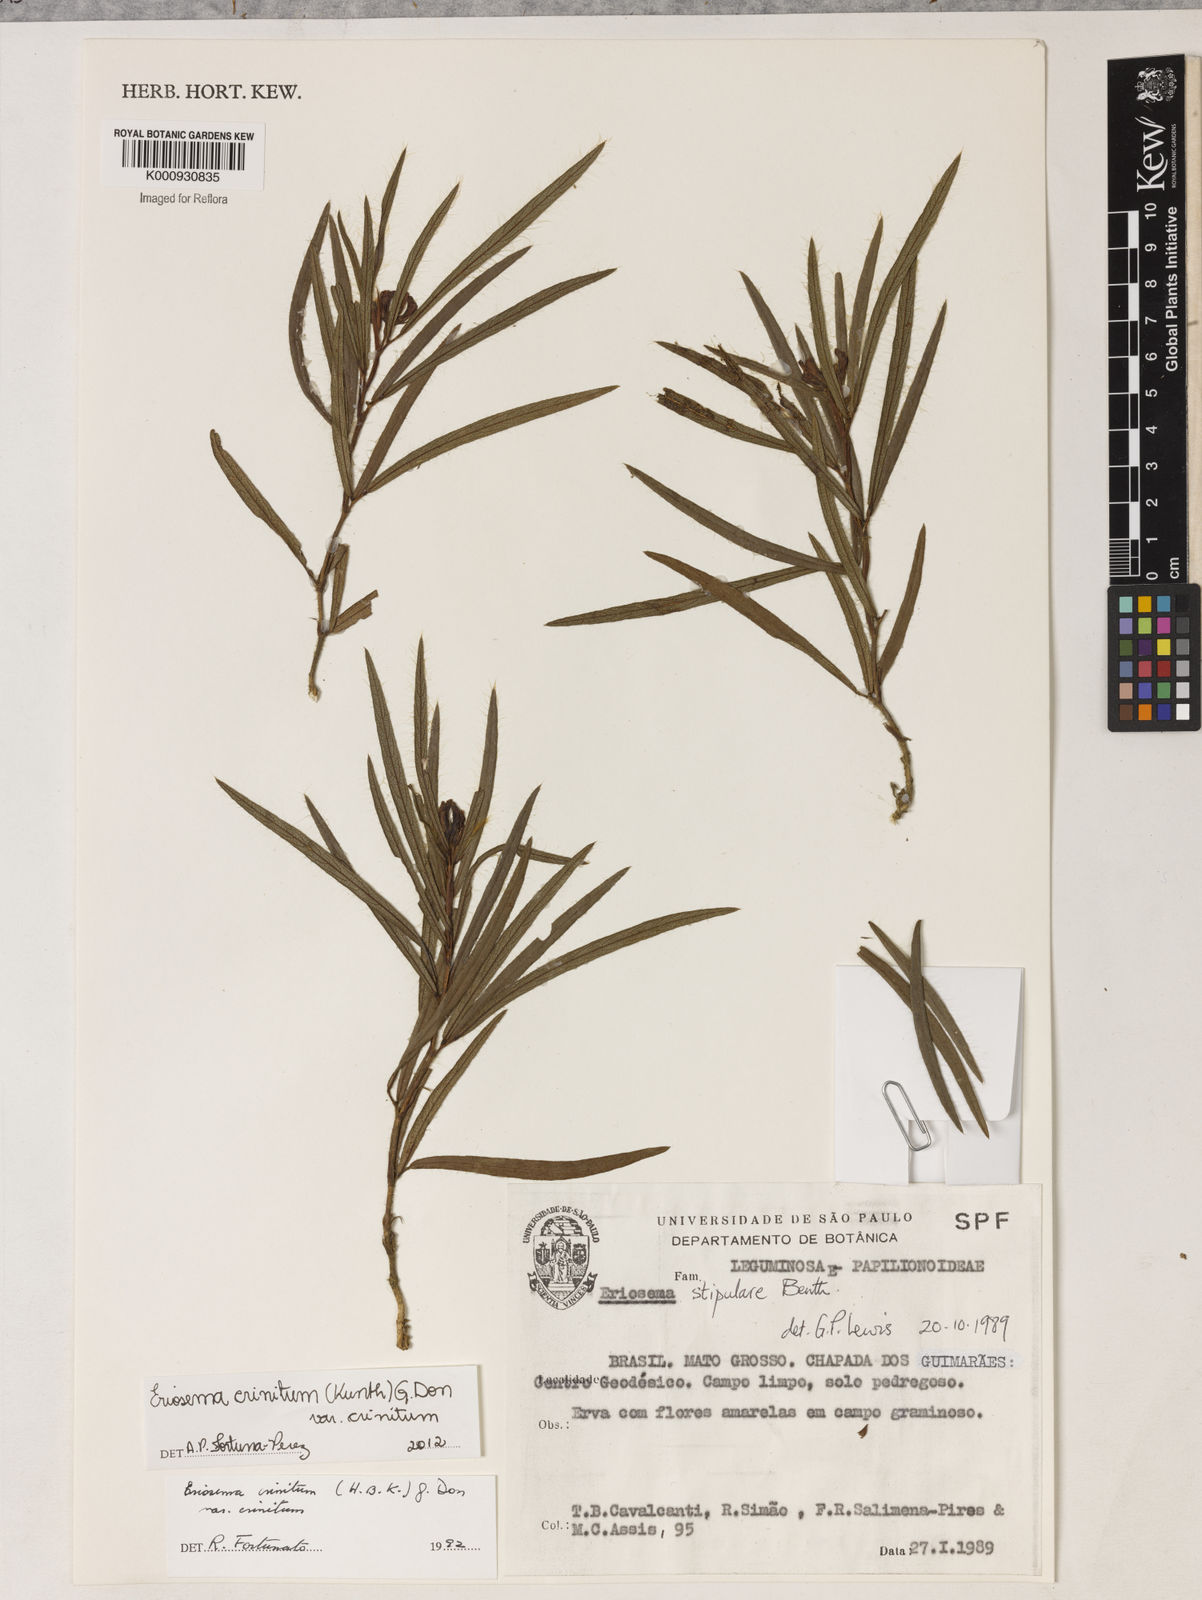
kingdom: Plantae
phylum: Tracheophyta
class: Magnoliopsida
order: Fabales
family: Fabaceae
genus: Eriosema
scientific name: Eriosema crinitum
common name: Sand pea
